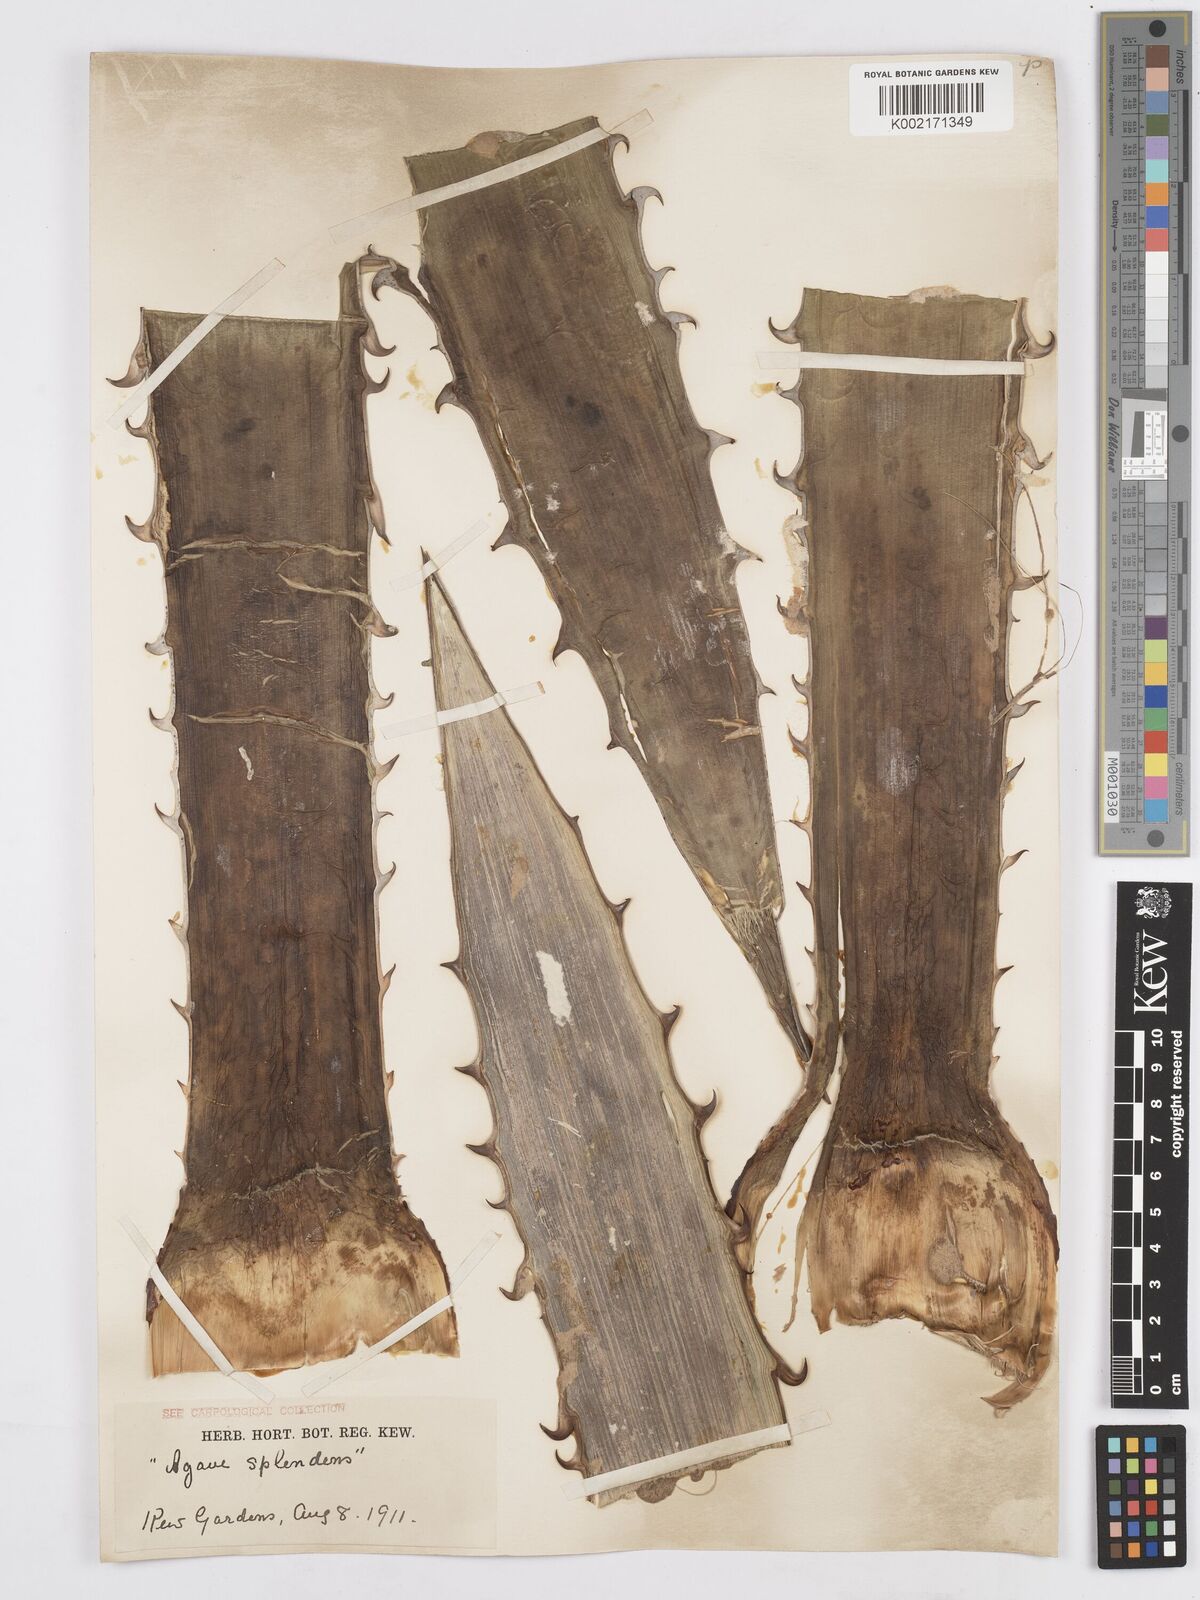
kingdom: Plantae
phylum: Tracheophyta
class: Liliopsida
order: Asparagales
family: Asparagaceae
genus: Agave
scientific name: Agave xylonacantha
